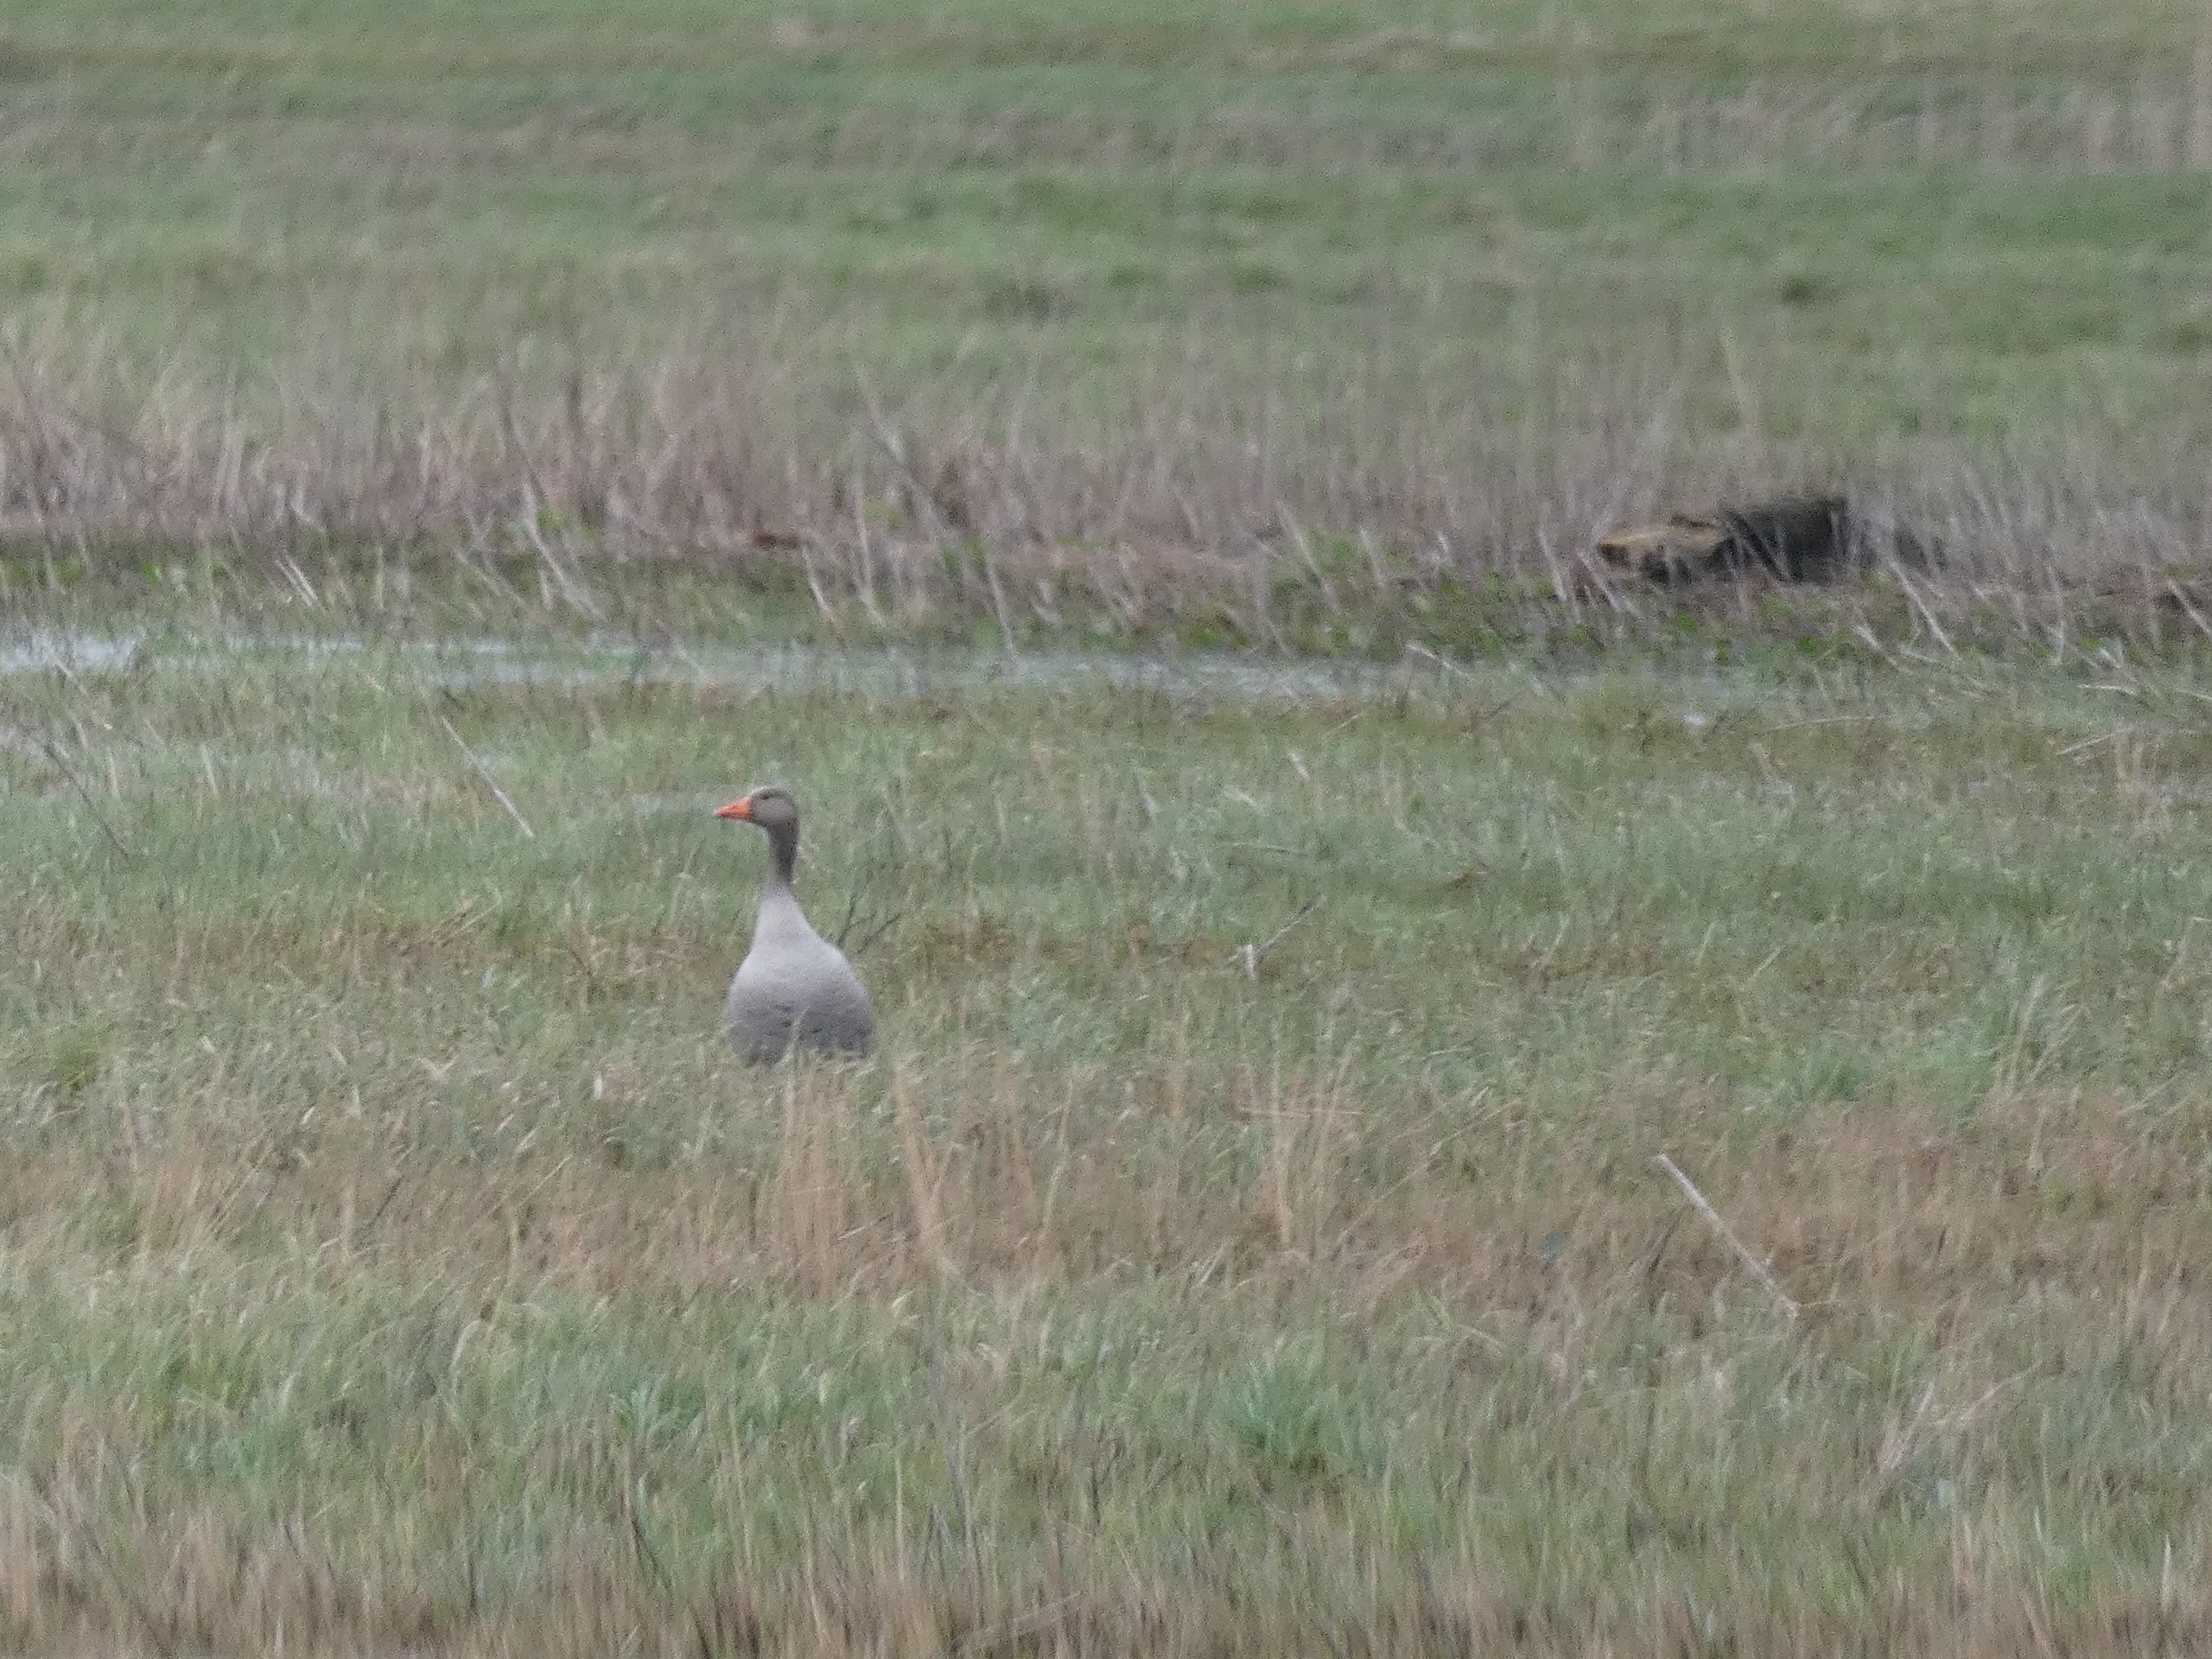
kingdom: Animalia
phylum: Chordata
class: Aves
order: Anseriformes
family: Anatidae
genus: Anser
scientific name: Anser anser
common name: Grågås
